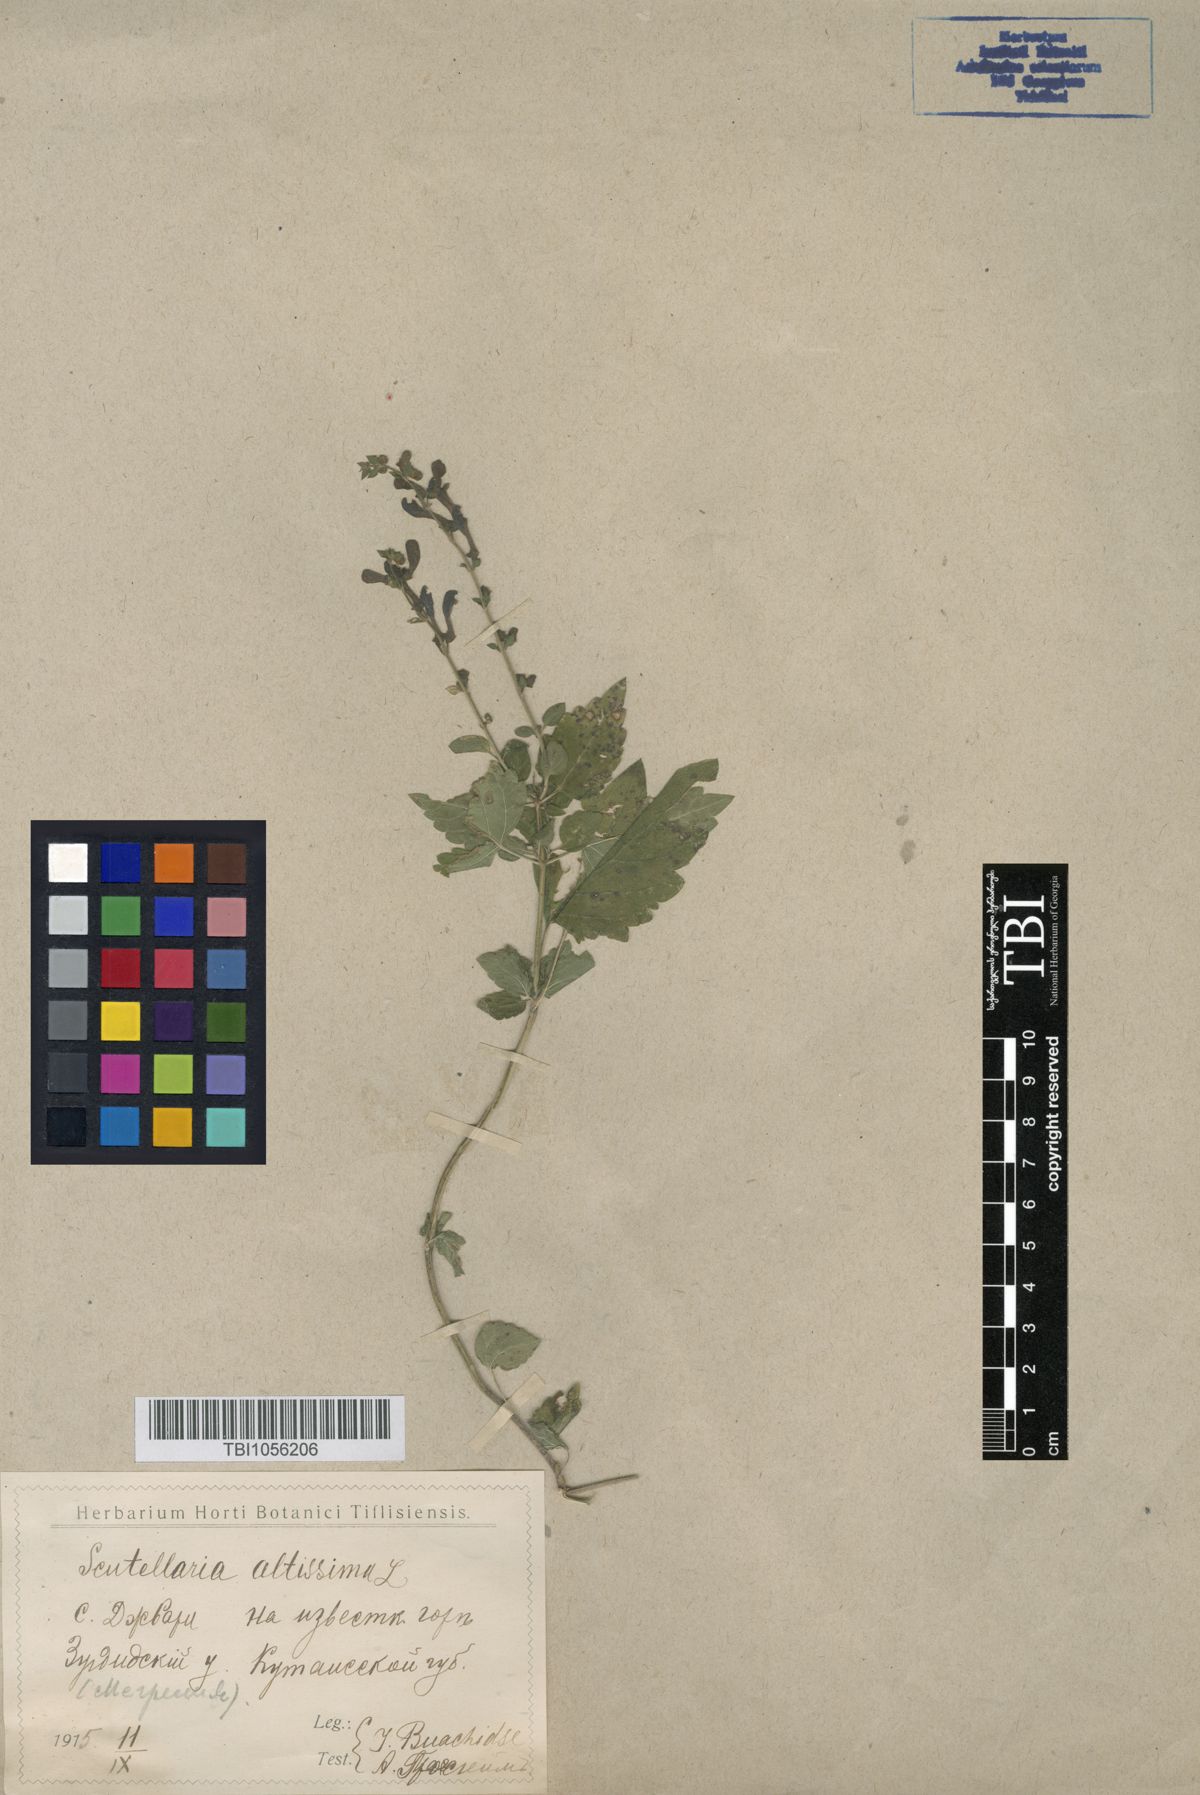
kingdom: Plantae
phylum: Tracheophyta
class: Magnoliopsida
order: Lamiales
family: Lamiaceae
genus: Scutellaria
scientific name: Scutellaria altissima
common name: Somerset skullcap
